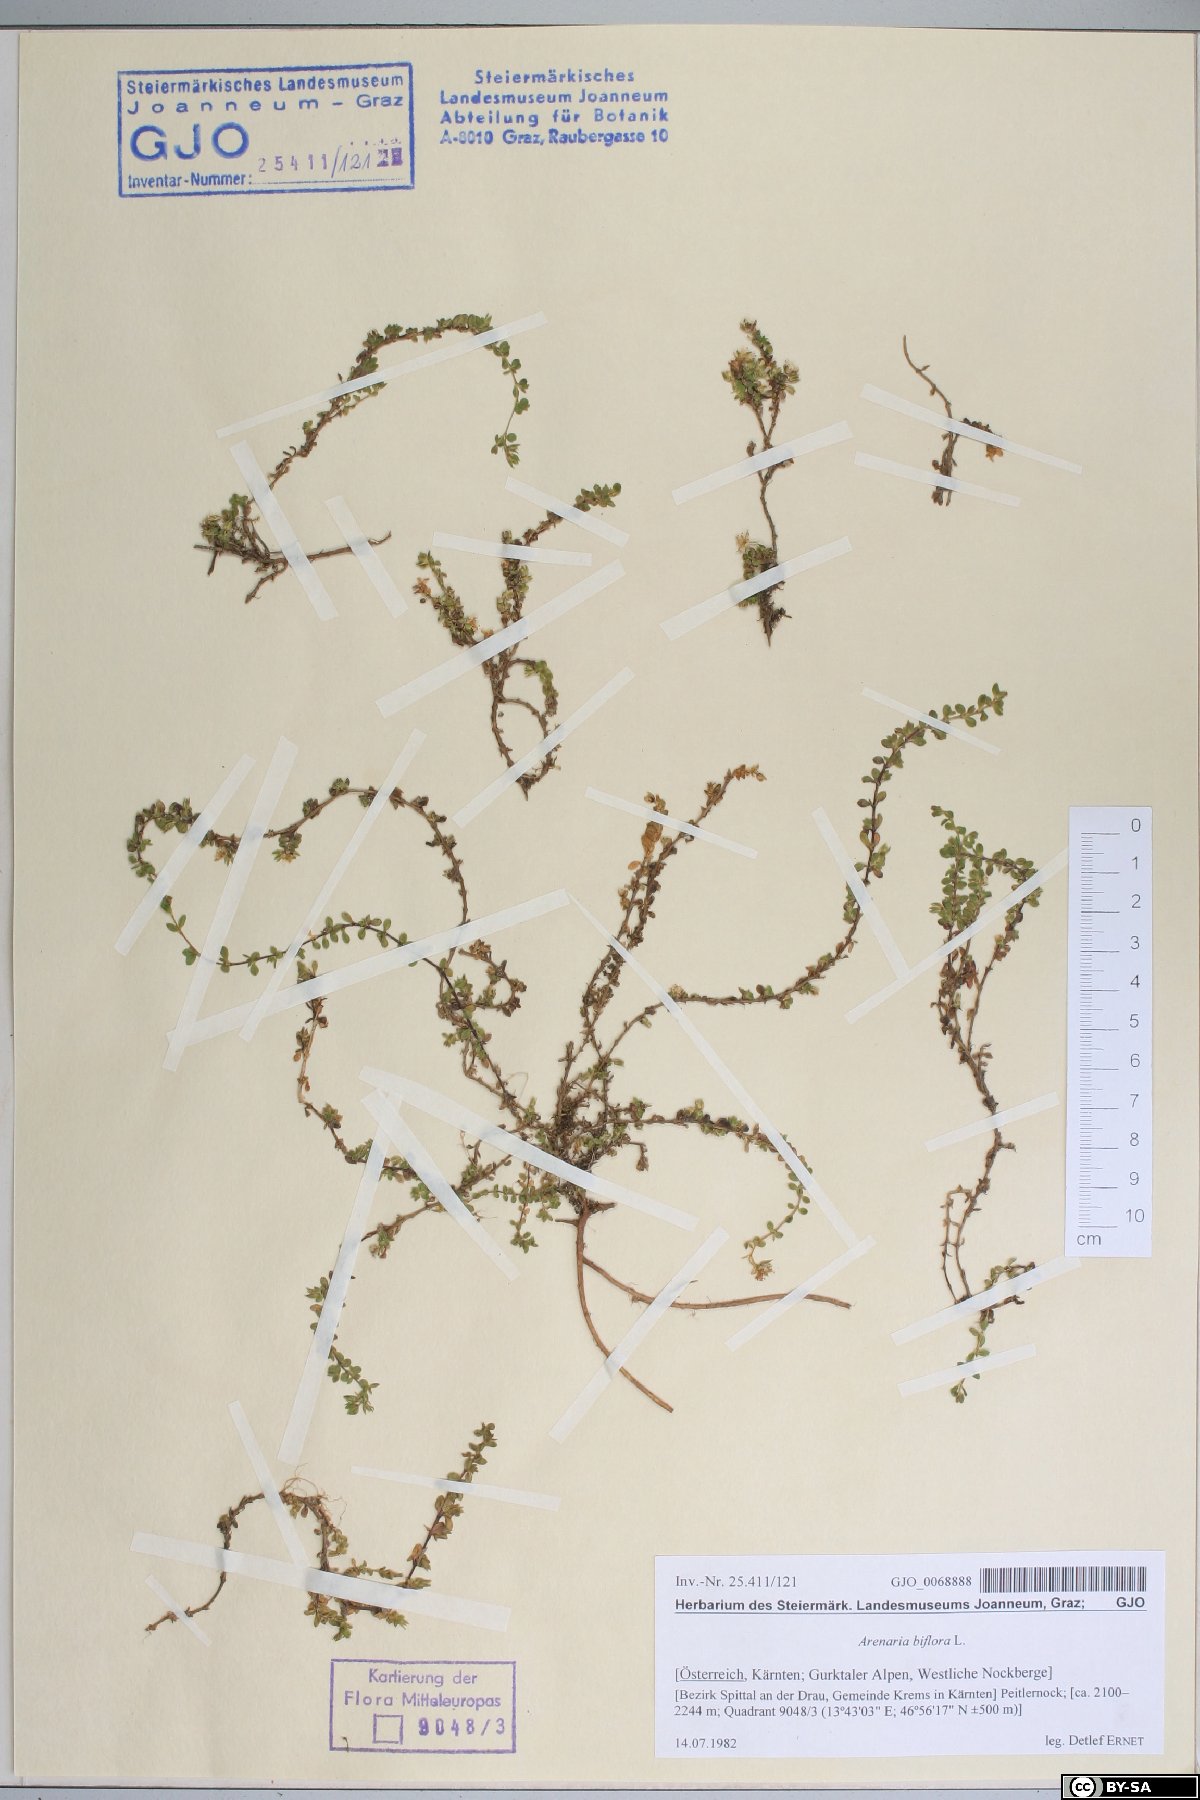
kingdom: Plantae
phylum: Tracheophyta
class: Magnoliopsida
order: Caryophyllales
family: Caryophyllaceae
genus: Arenaria
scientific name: Arenaria biflora
